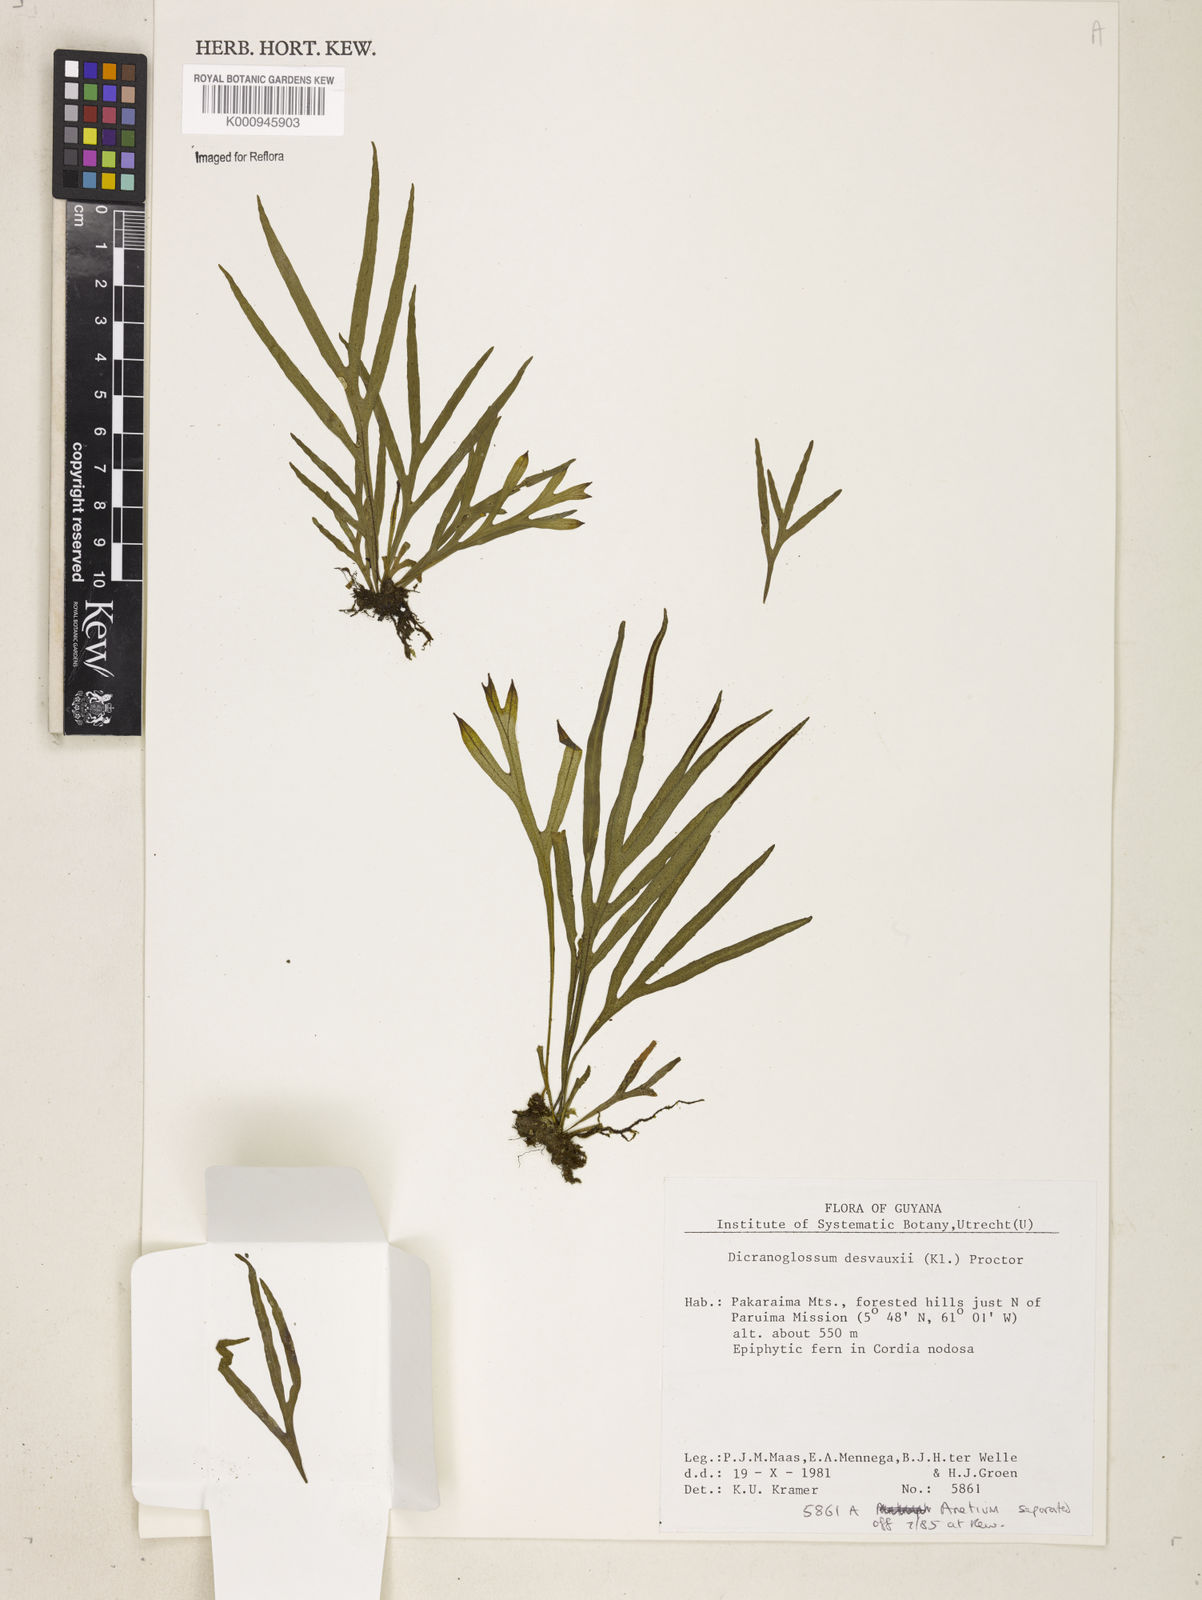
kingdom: Plantae
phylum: Tracheophyta
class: Polypodiopsida
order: Polypodiales
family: Polypodiaceae
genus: Pleopeltis
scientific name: Pleopeltis desvauxii
